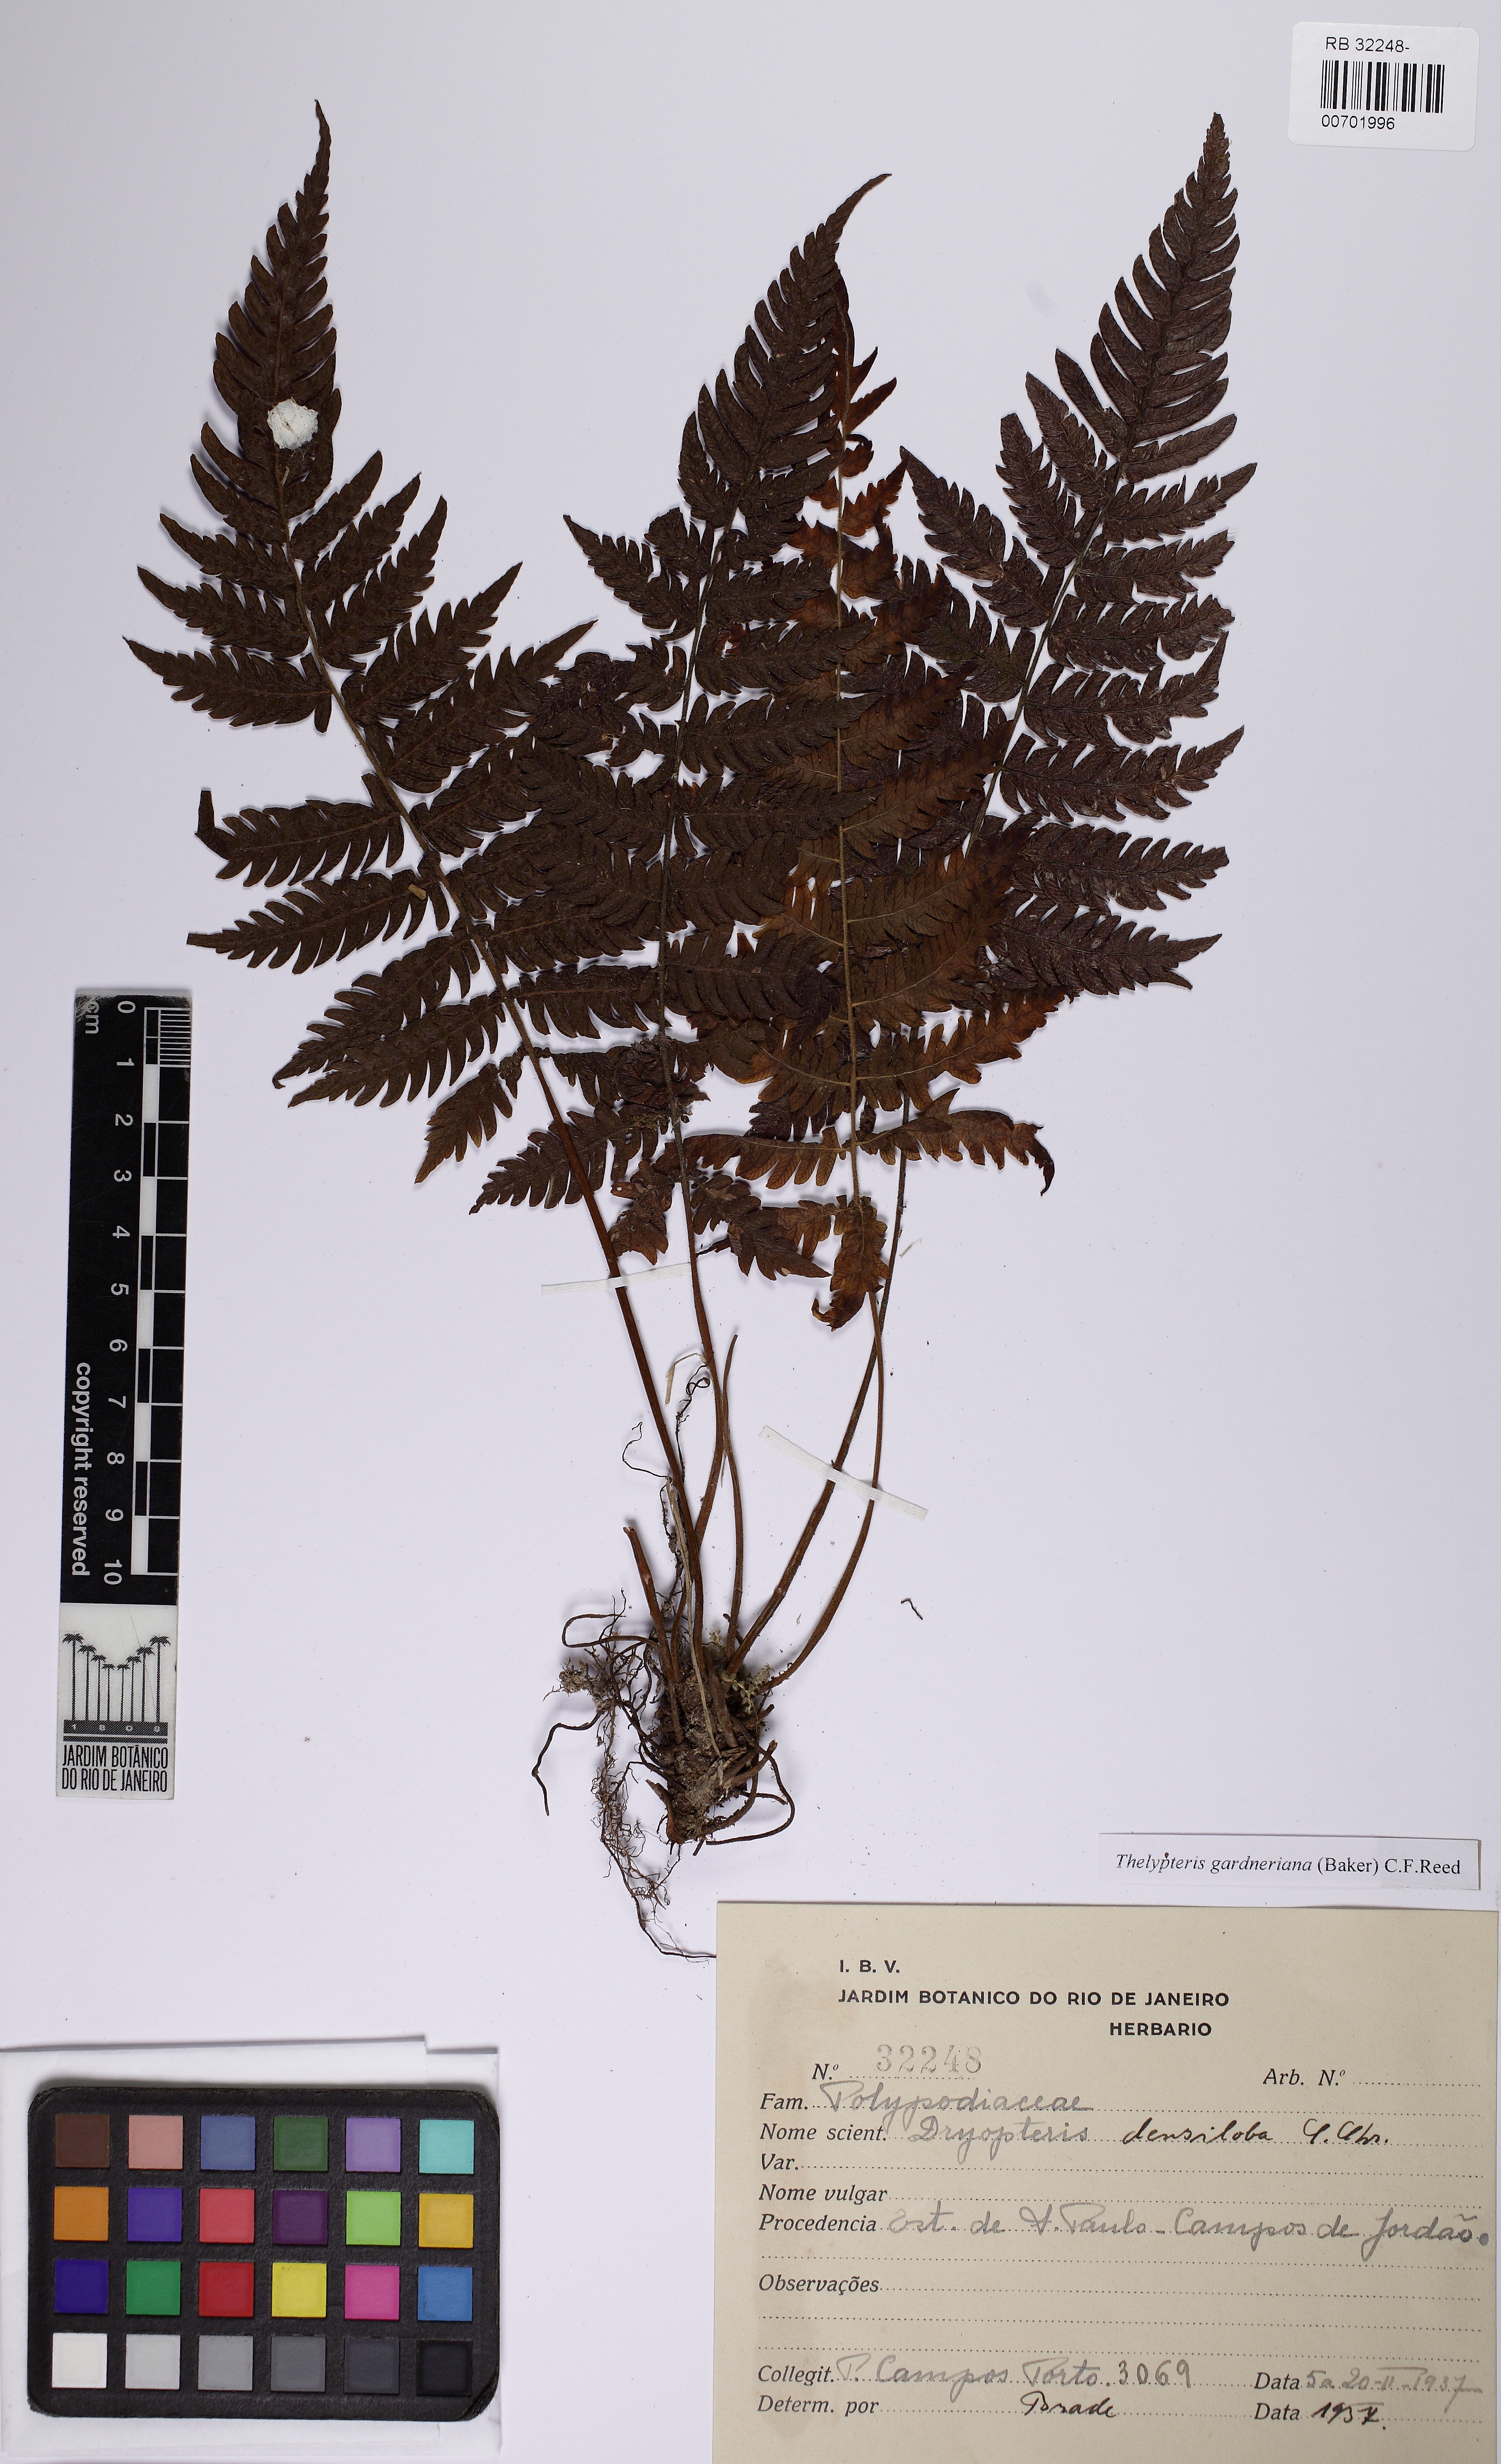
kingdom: Plantae
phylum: Tracheophyta
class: Polypodiopsida
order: Polypodiales
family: Thelypteridaceae
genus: Steiropteris
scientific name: Steiropteris gardneriana
